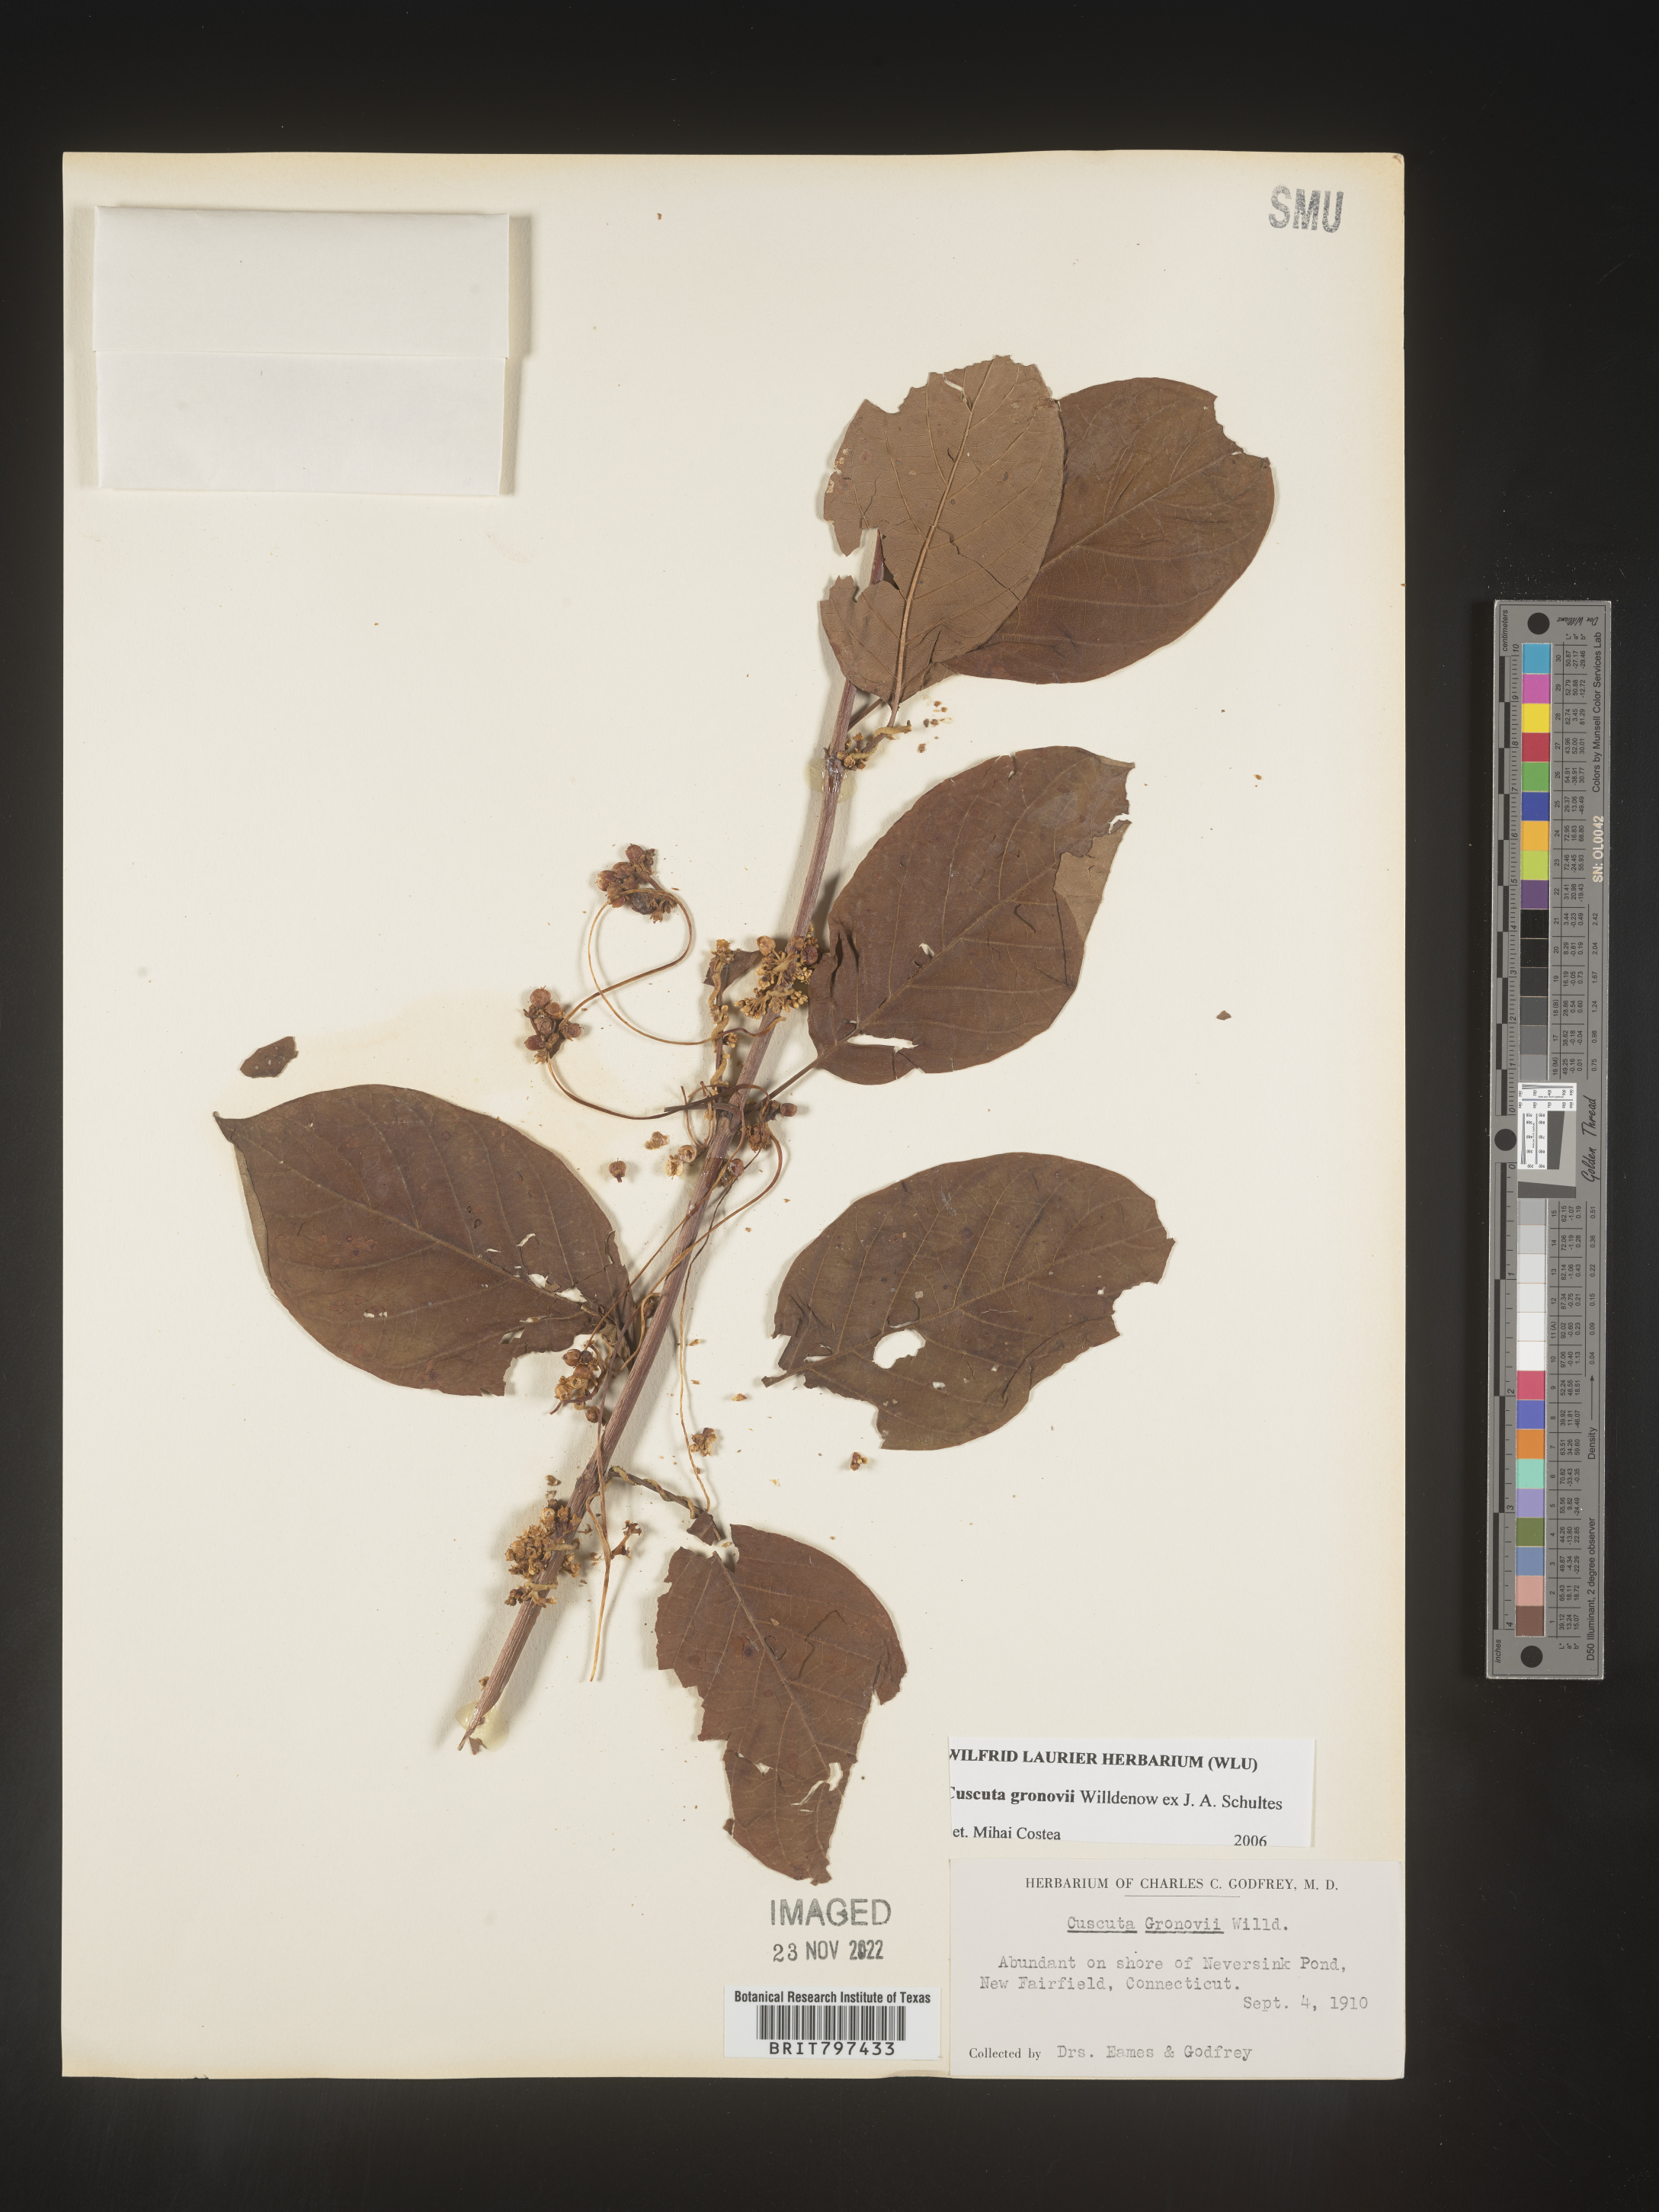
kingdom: Plantae
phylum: Tracheophyta
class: Magnoliopsida
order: Solanales
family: Convolvulaceae
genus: Cuscuta
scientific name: Cuscuta gronovii
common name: Common dodder
